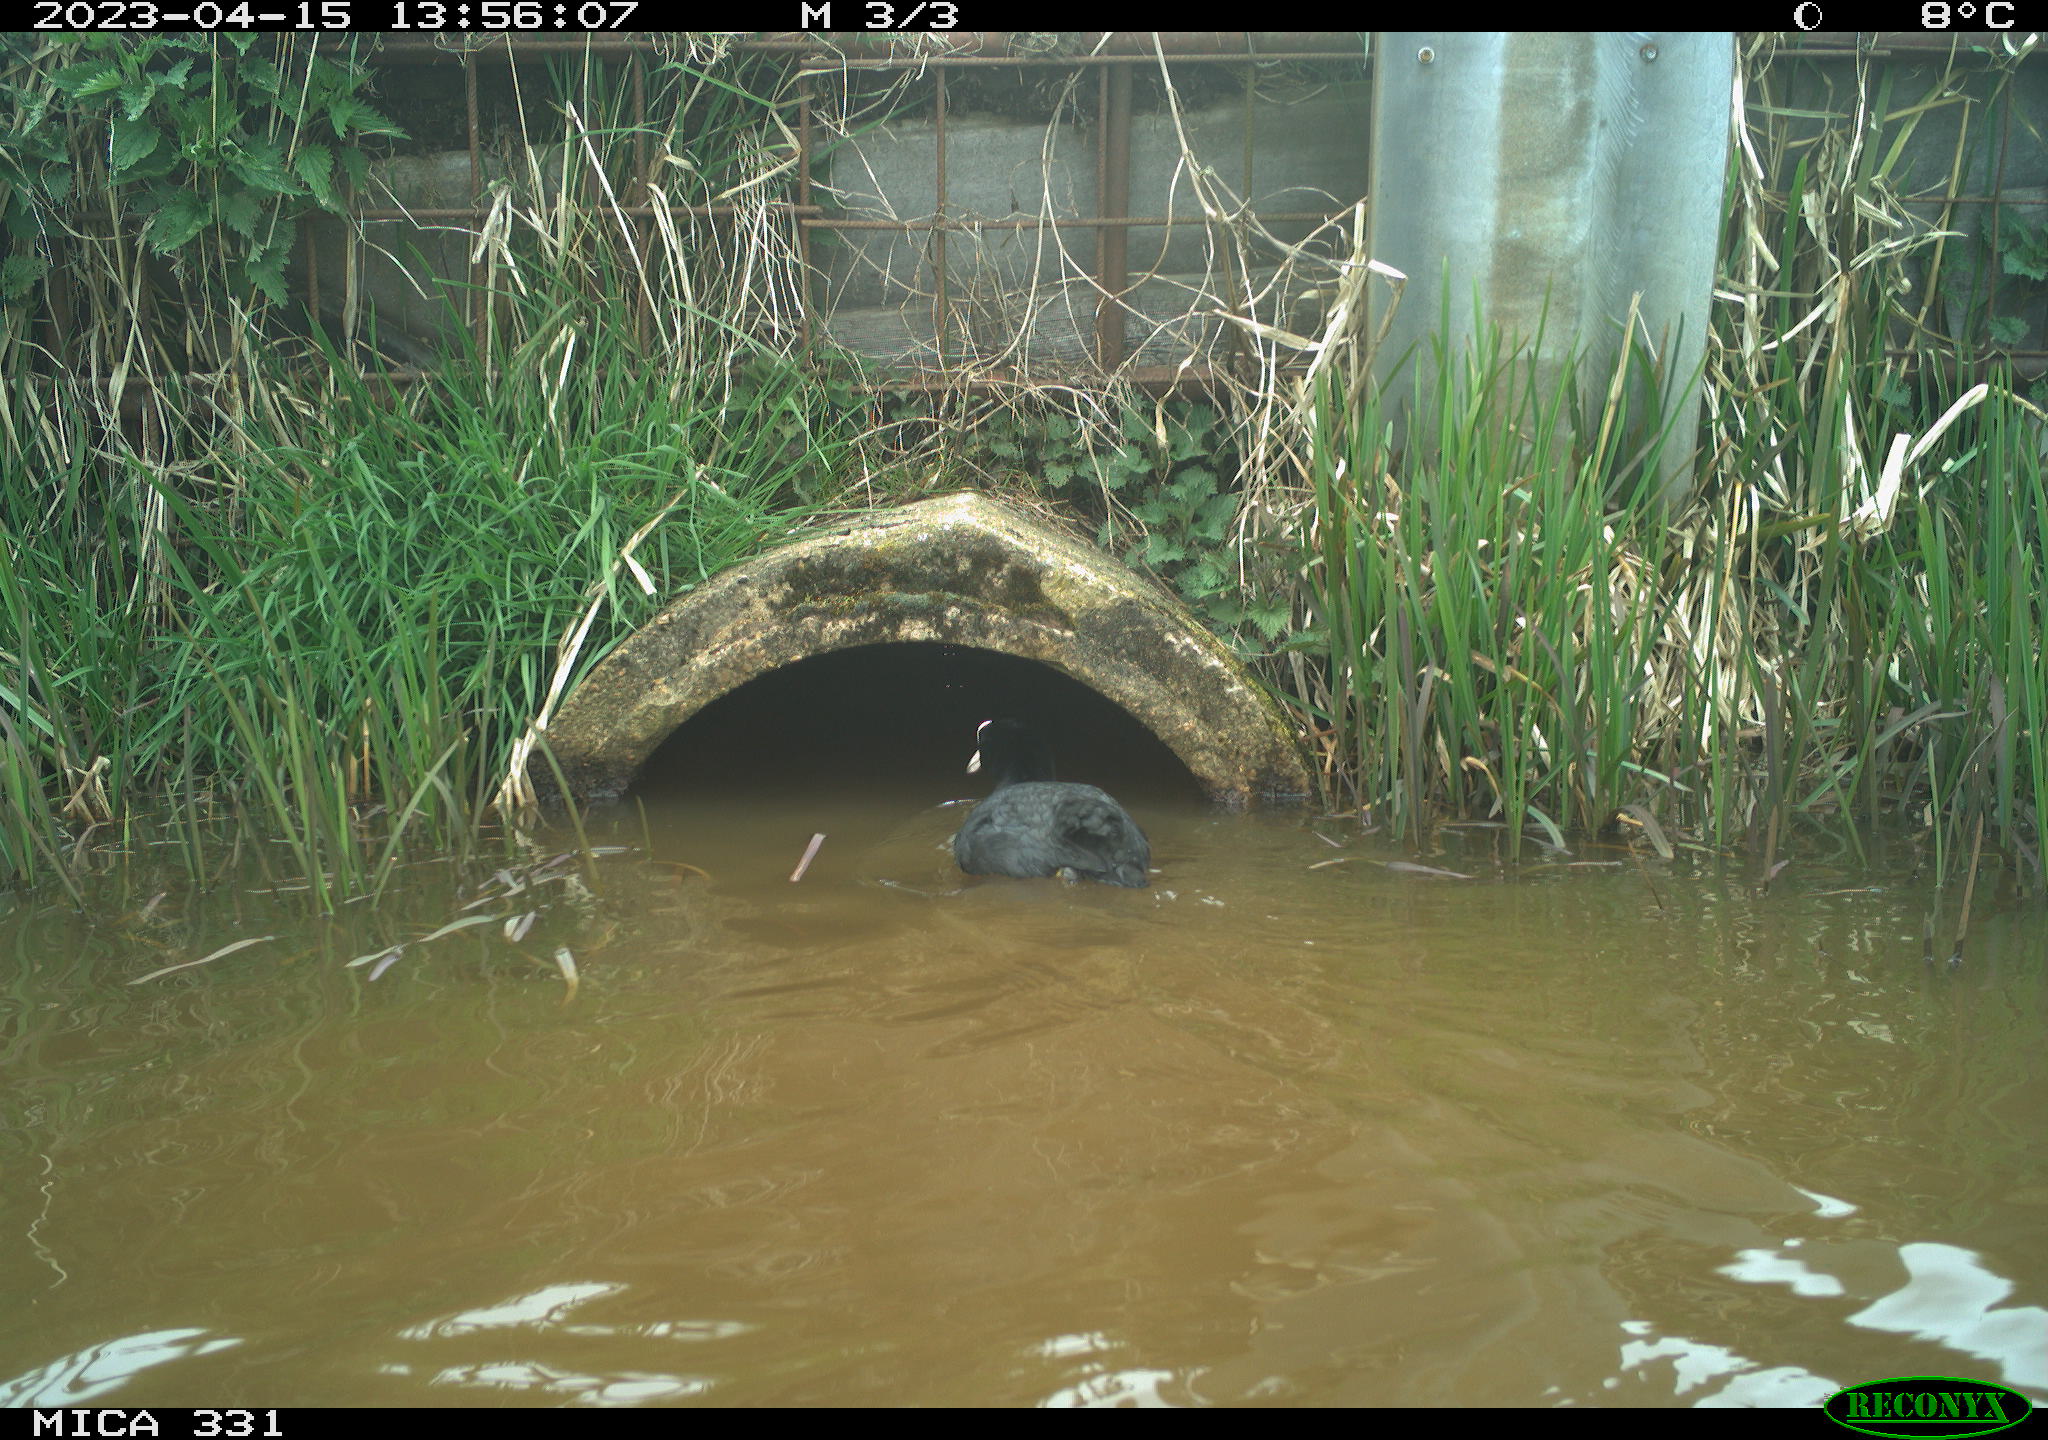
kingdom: Animalia
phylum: Chordata
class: Aves
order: Gruiformes
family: Rallidae
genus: Fulica
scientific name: Fulica atra
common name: Eurasian coot
